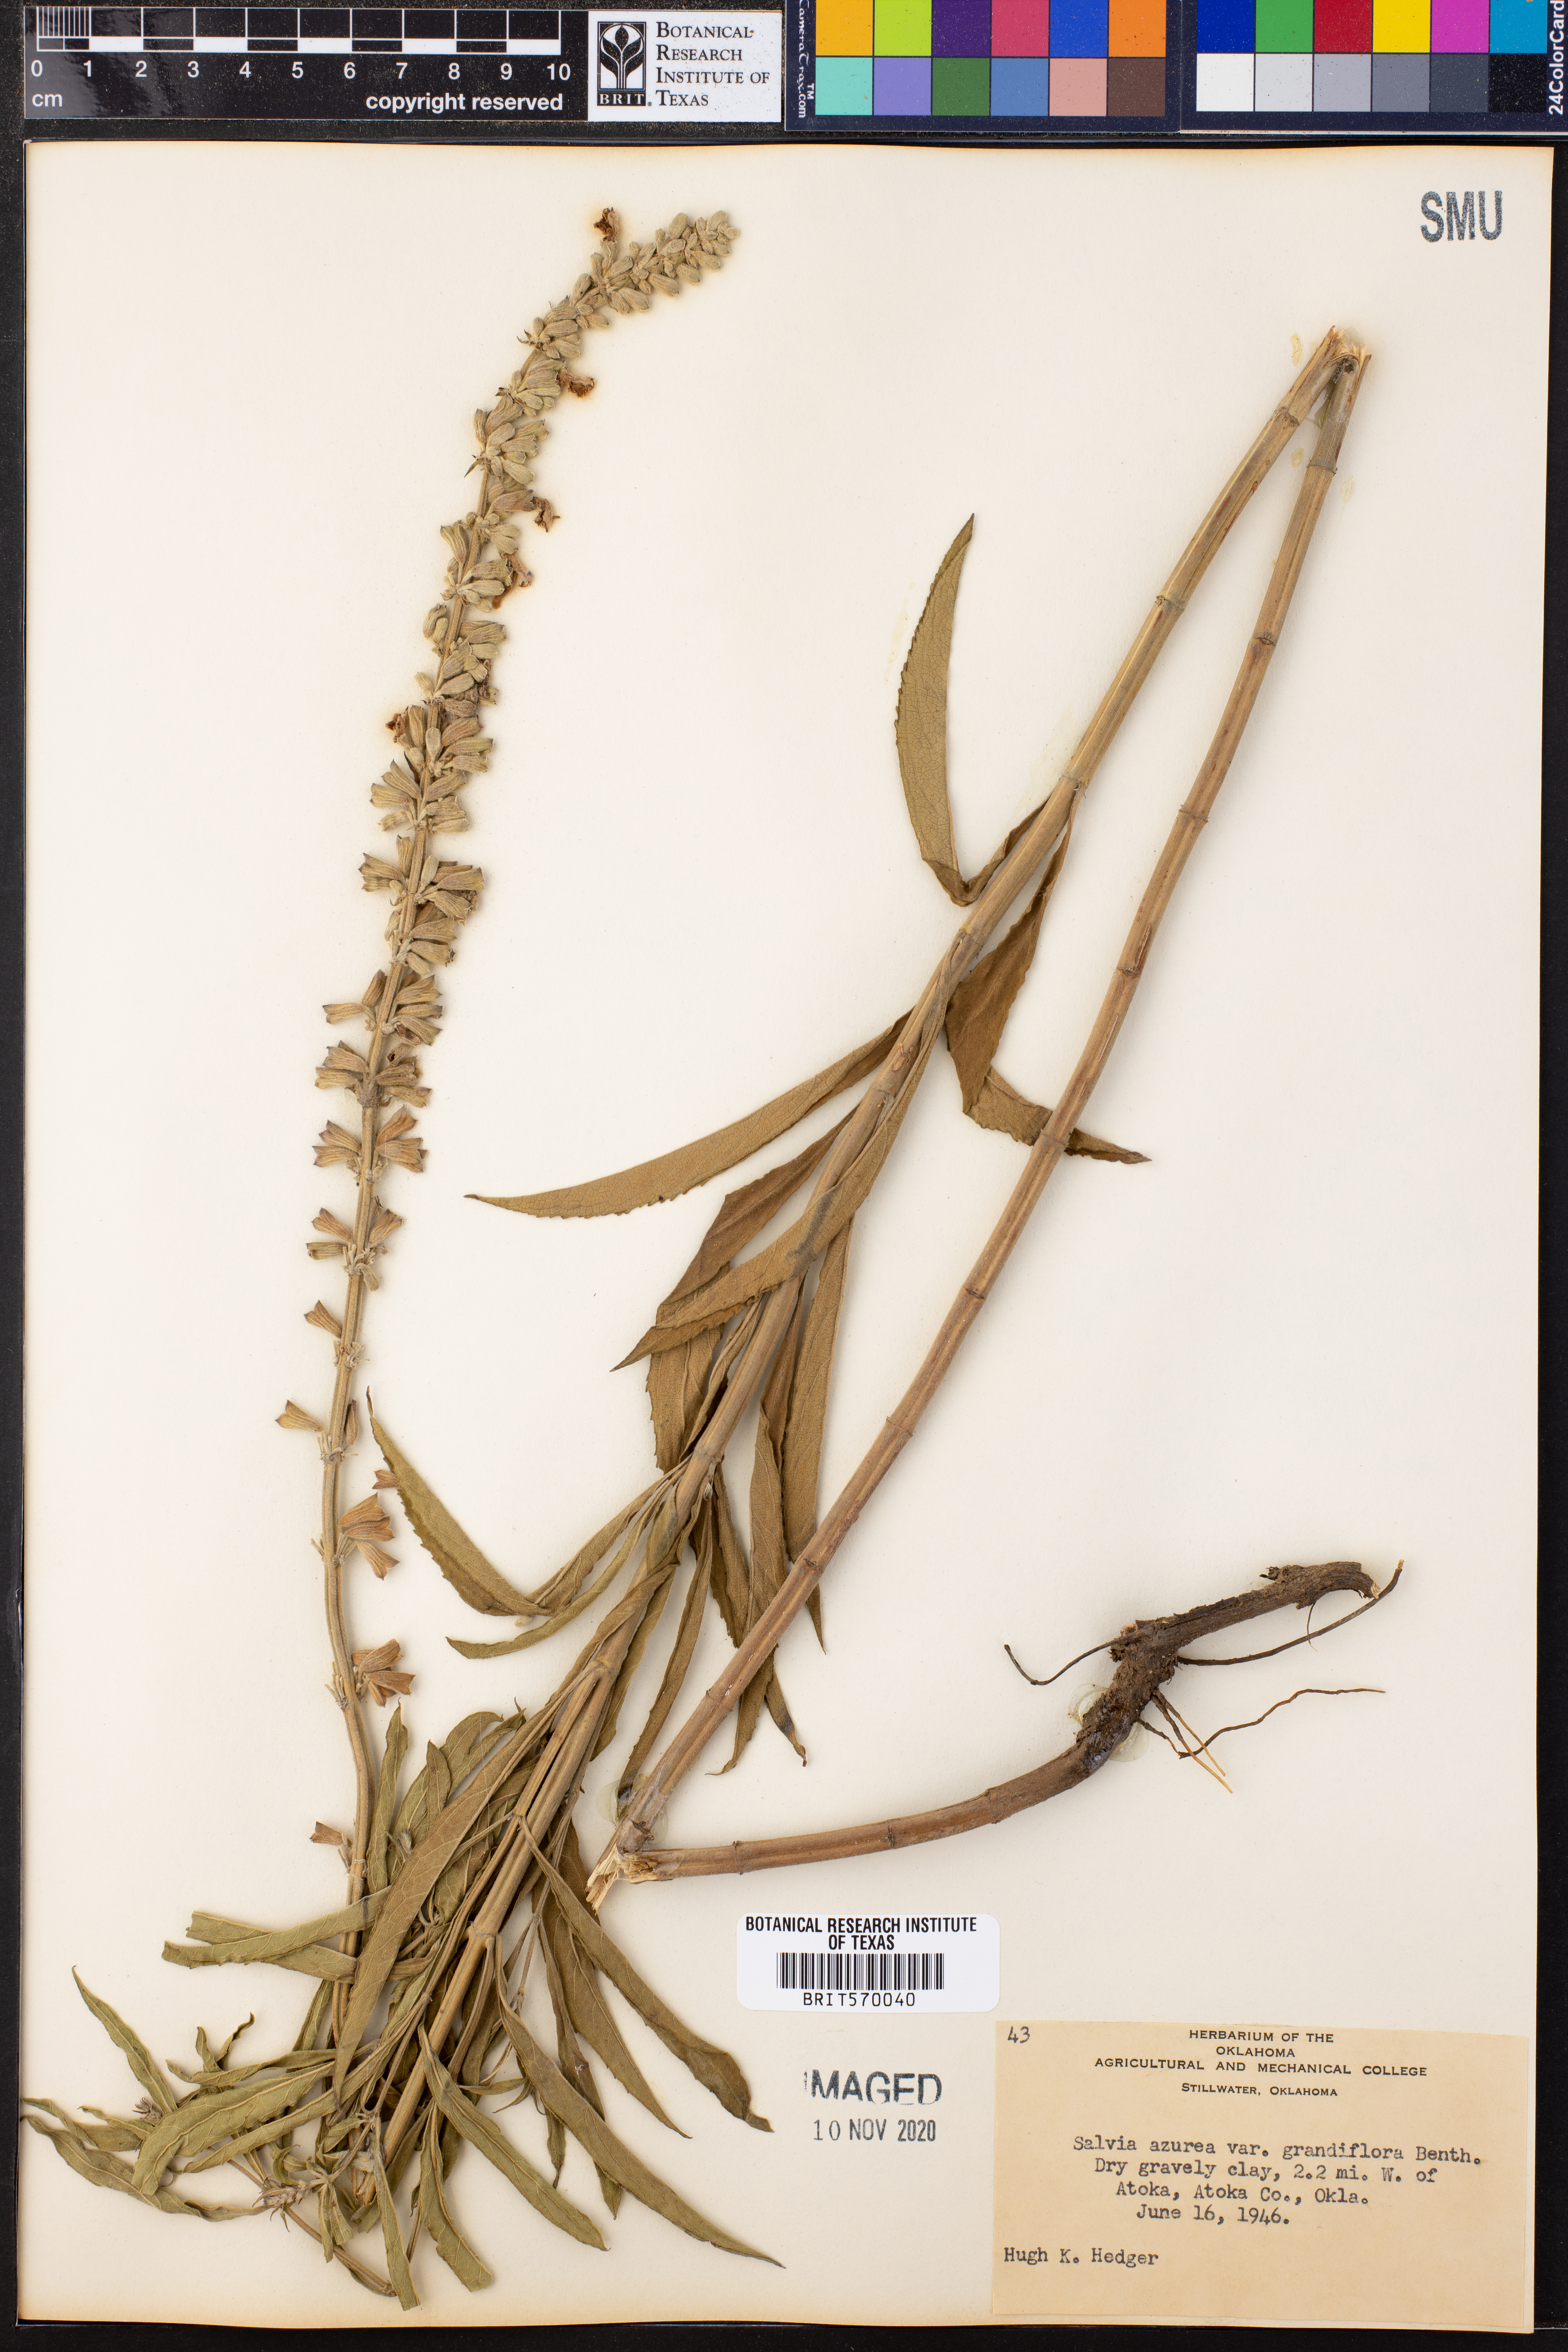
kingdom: Plantae
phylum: Tracheophyta
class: Magnoliopsida
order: Lamiales
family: Lamiaceae
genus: Salvia
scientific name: Salvia azurea
